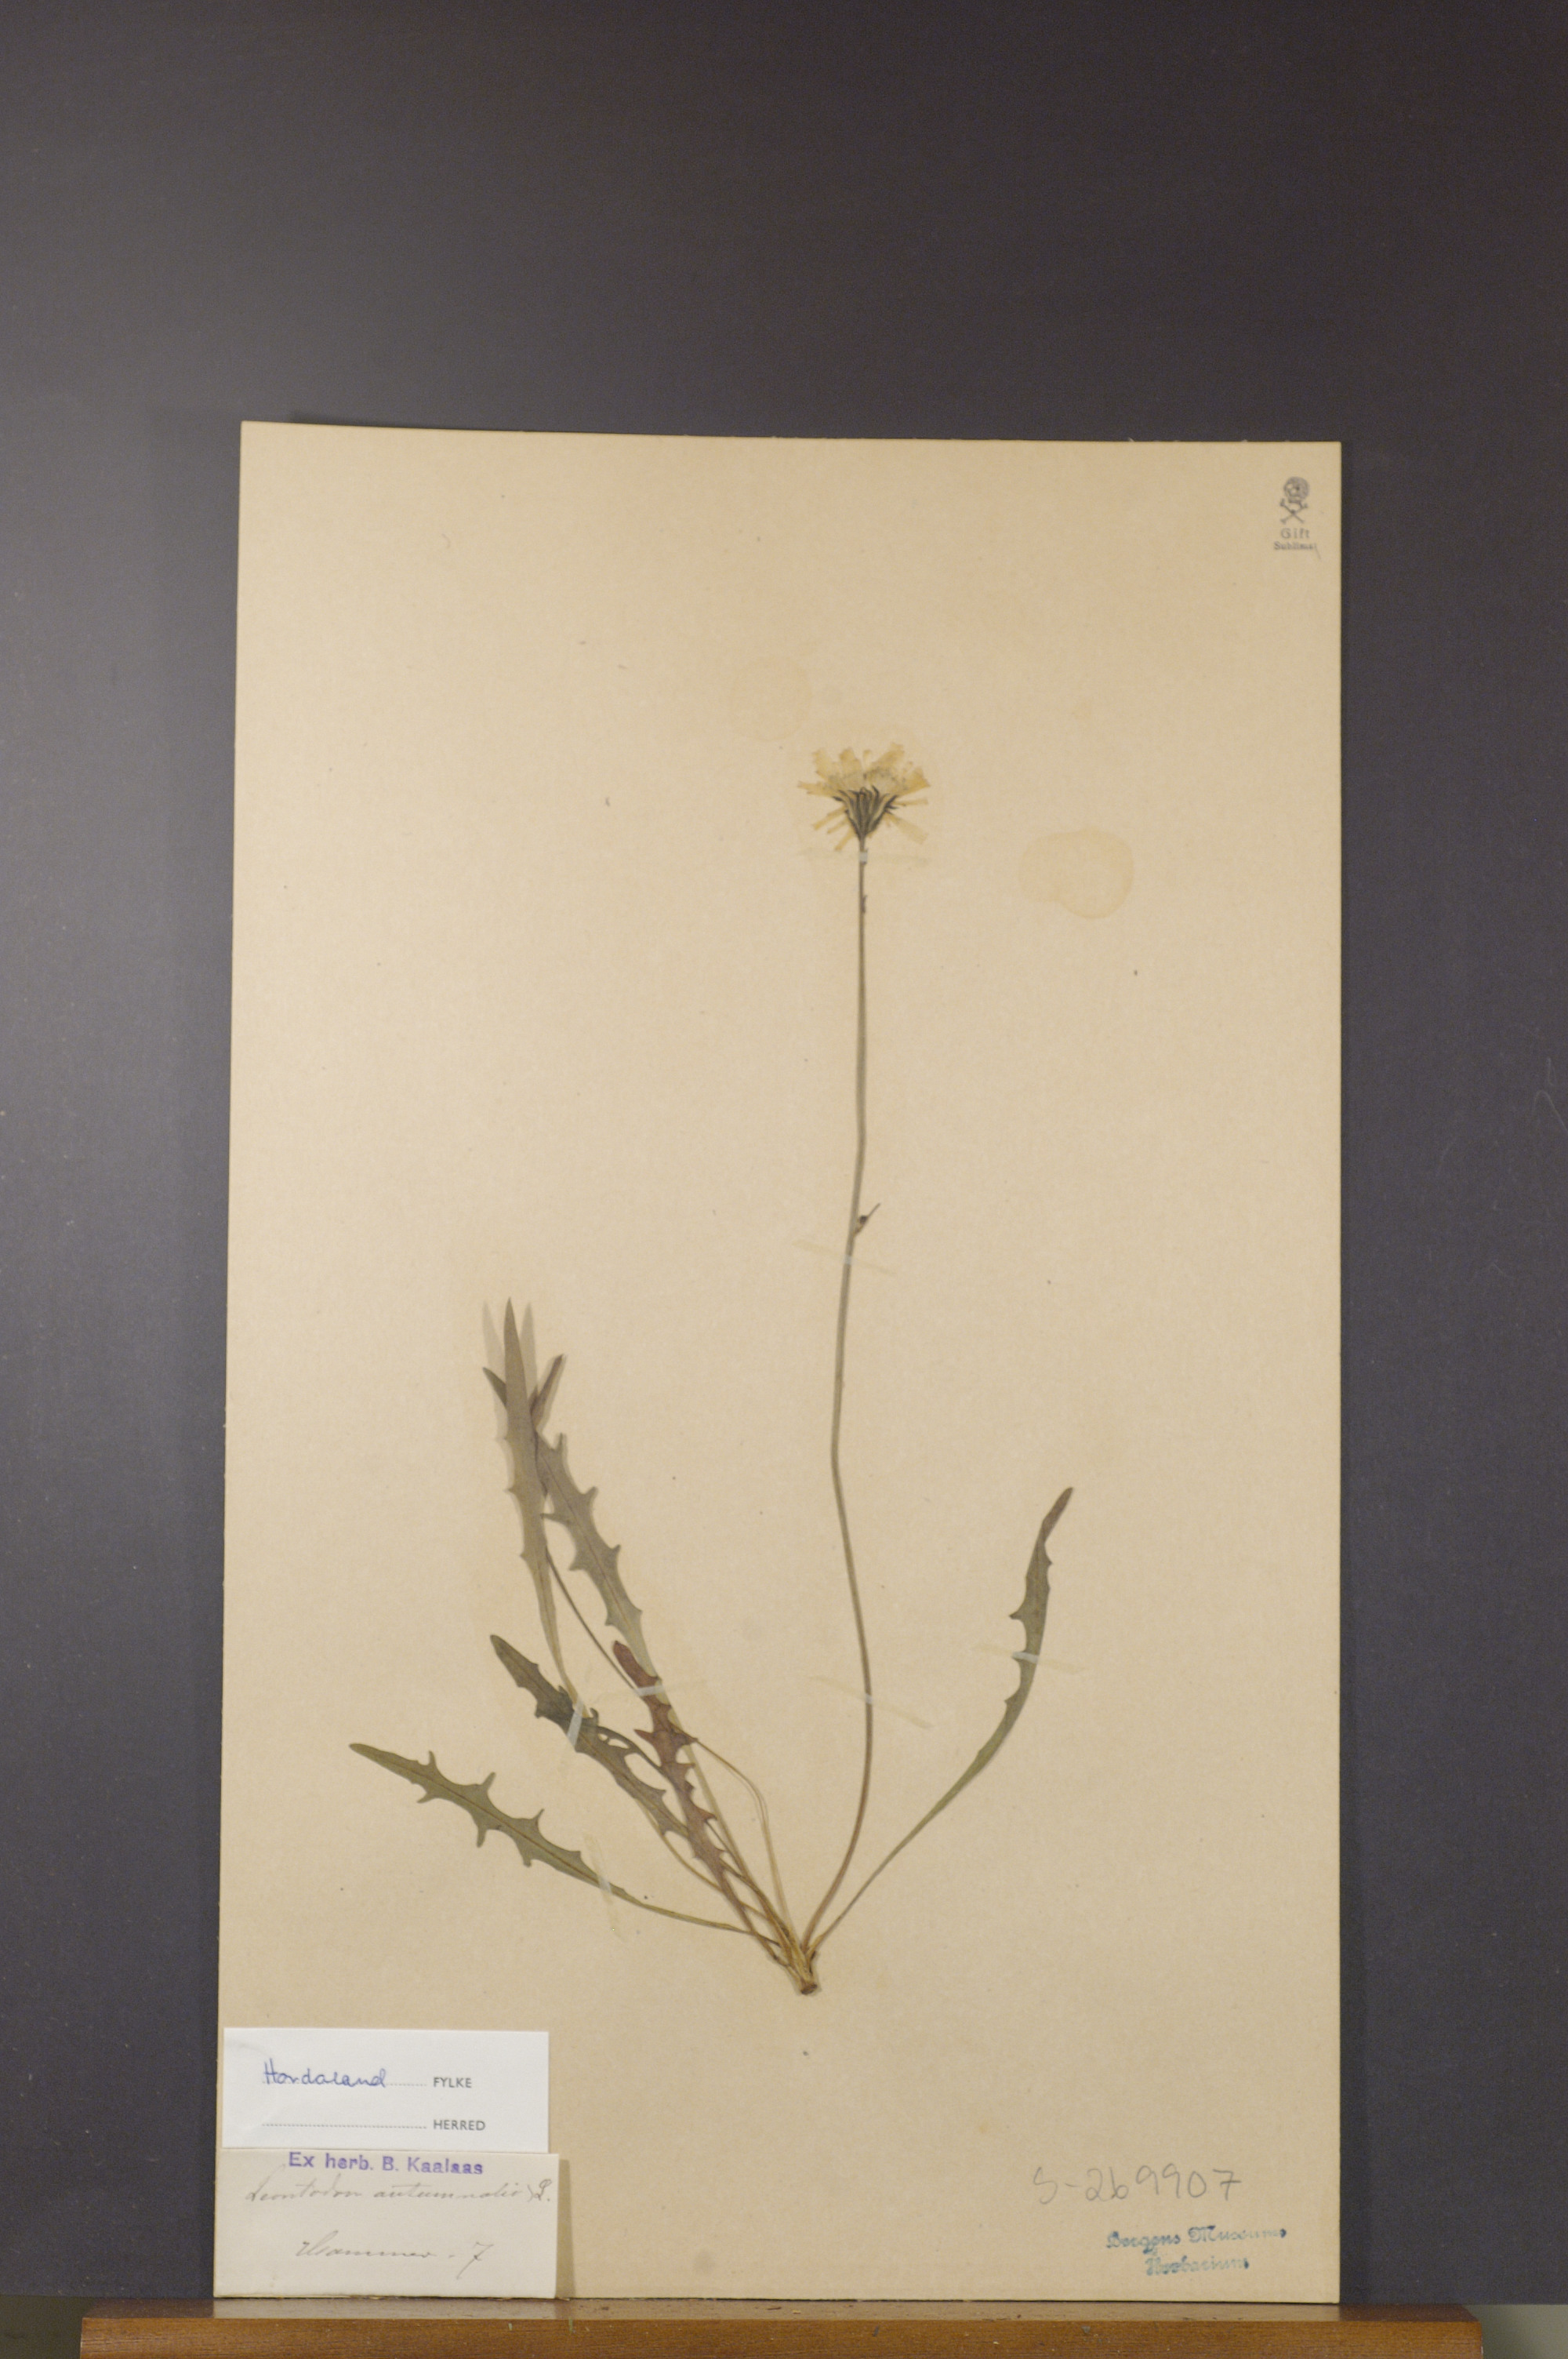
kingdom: Plantae
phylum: Tracheophyta
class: Magnoliopsida
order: Asterales
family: Asteraceae
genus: Scorzoneroides
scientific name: Scorzoneroides autumnalis
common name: Autumn hawkbit
